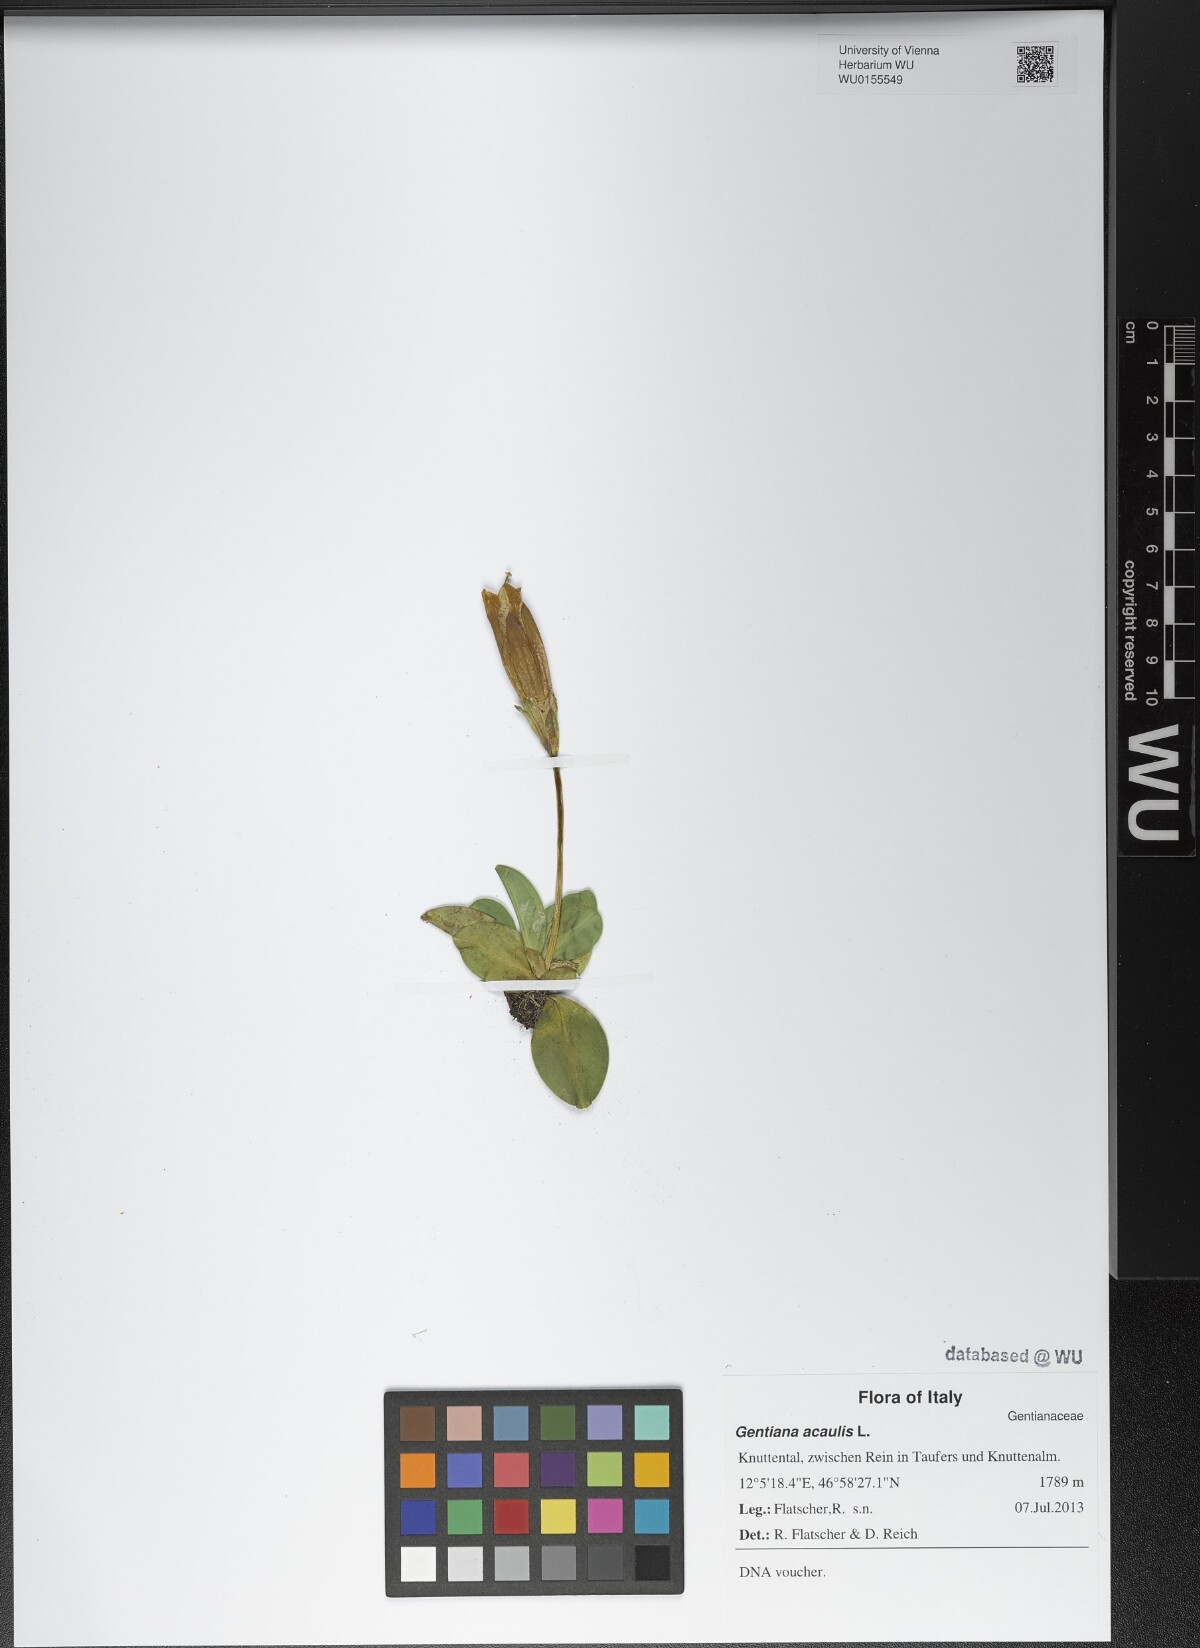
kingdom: Plantae
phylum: Tracheophyta
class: Magnoliopsida
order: Gentianales
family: Gentianaceae
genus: Gentiana
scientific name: Gentiana acaulis
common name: Trumpet gentian
